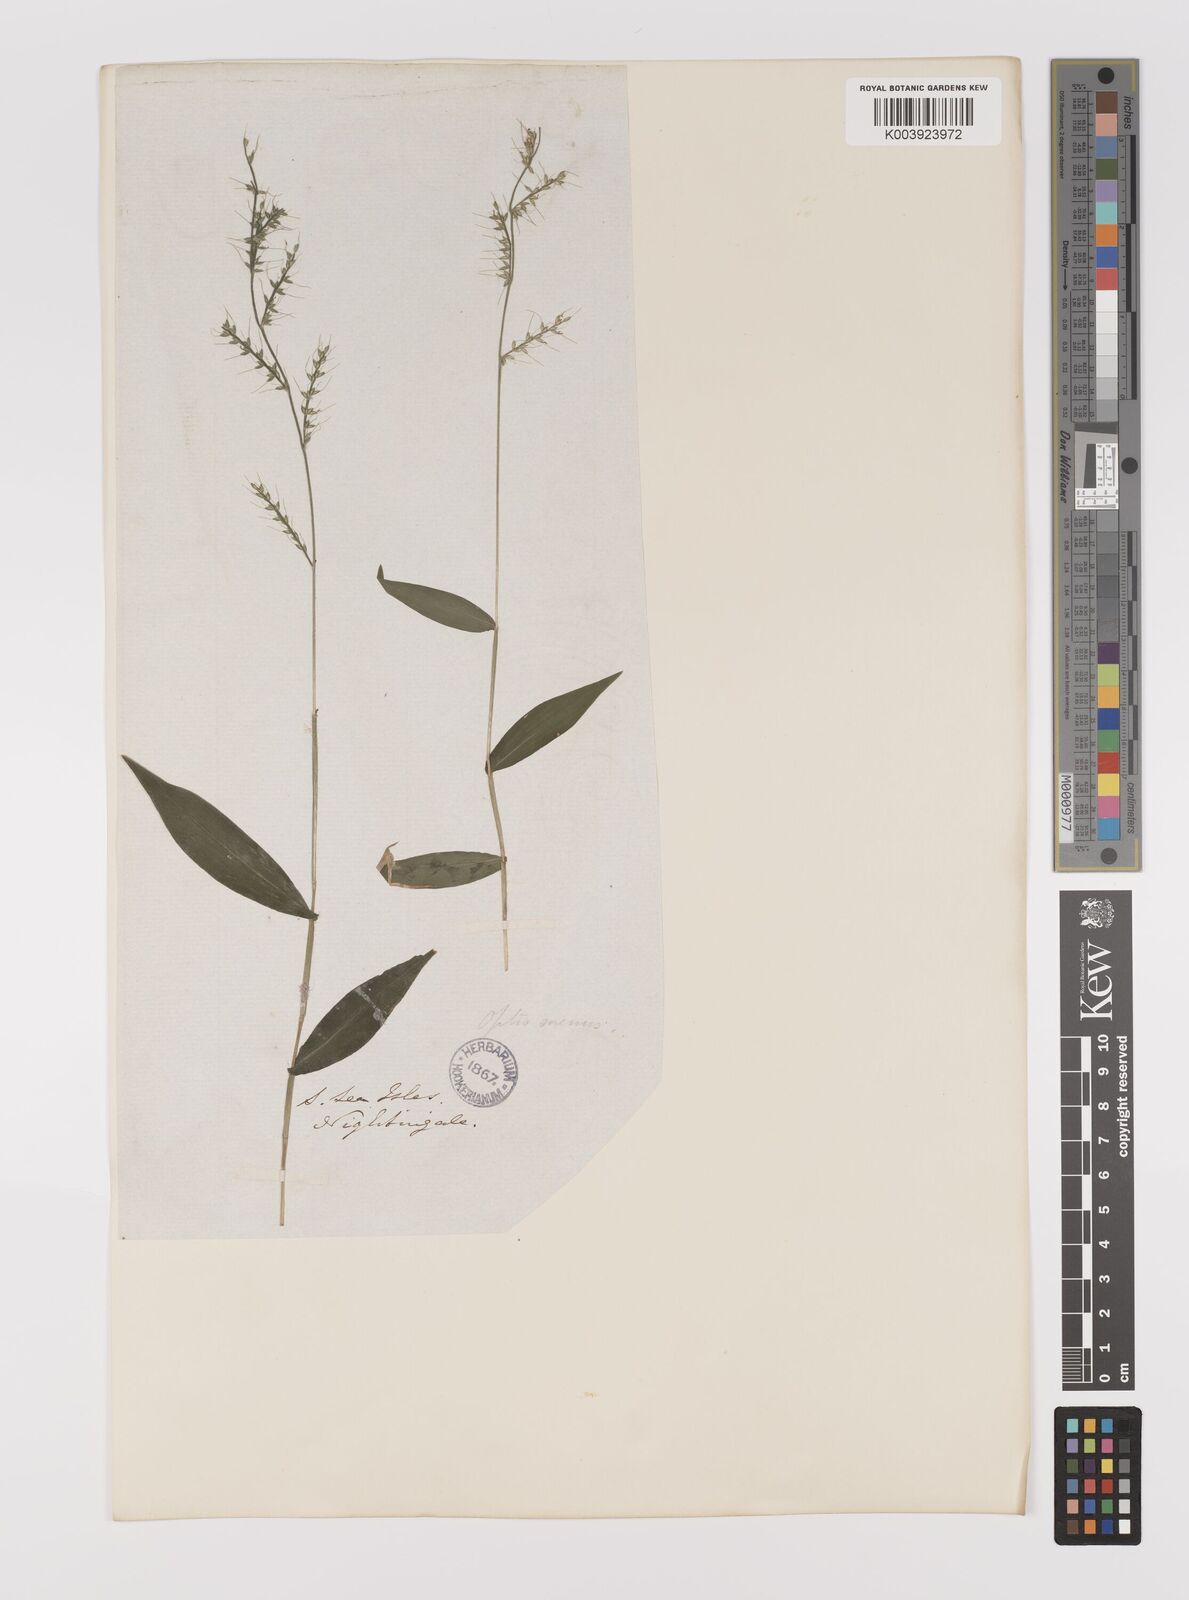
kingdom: Plantae
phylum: Tracheophyta
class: Liliopsida
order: Poales
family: Poaceae
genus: Oplismenus
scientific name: Oplismenus compositus
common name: Running mountain grass
